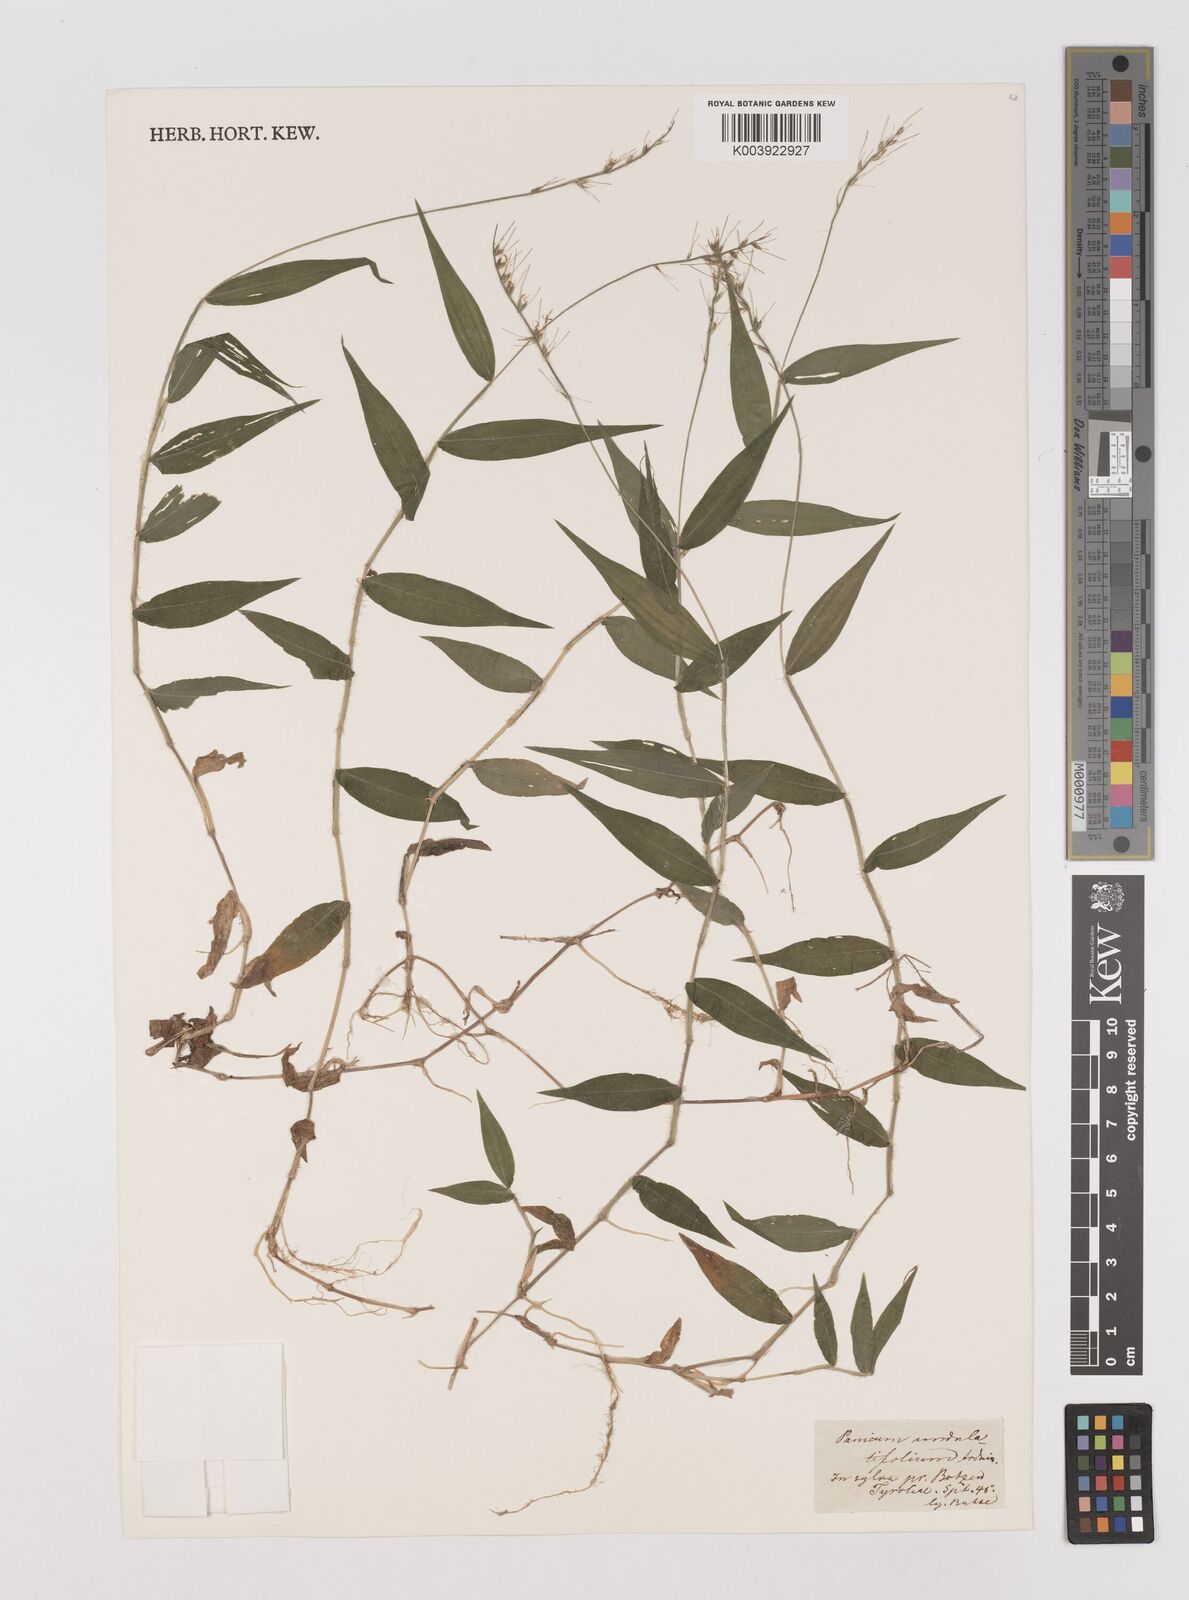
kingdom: Plantae
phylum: Tracheophyta
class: Liliopsida
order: Poales
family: Poaceae
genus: Oplismenus
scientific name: Oplismenus undulatifolius
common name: Wavyleaf basketgrass
